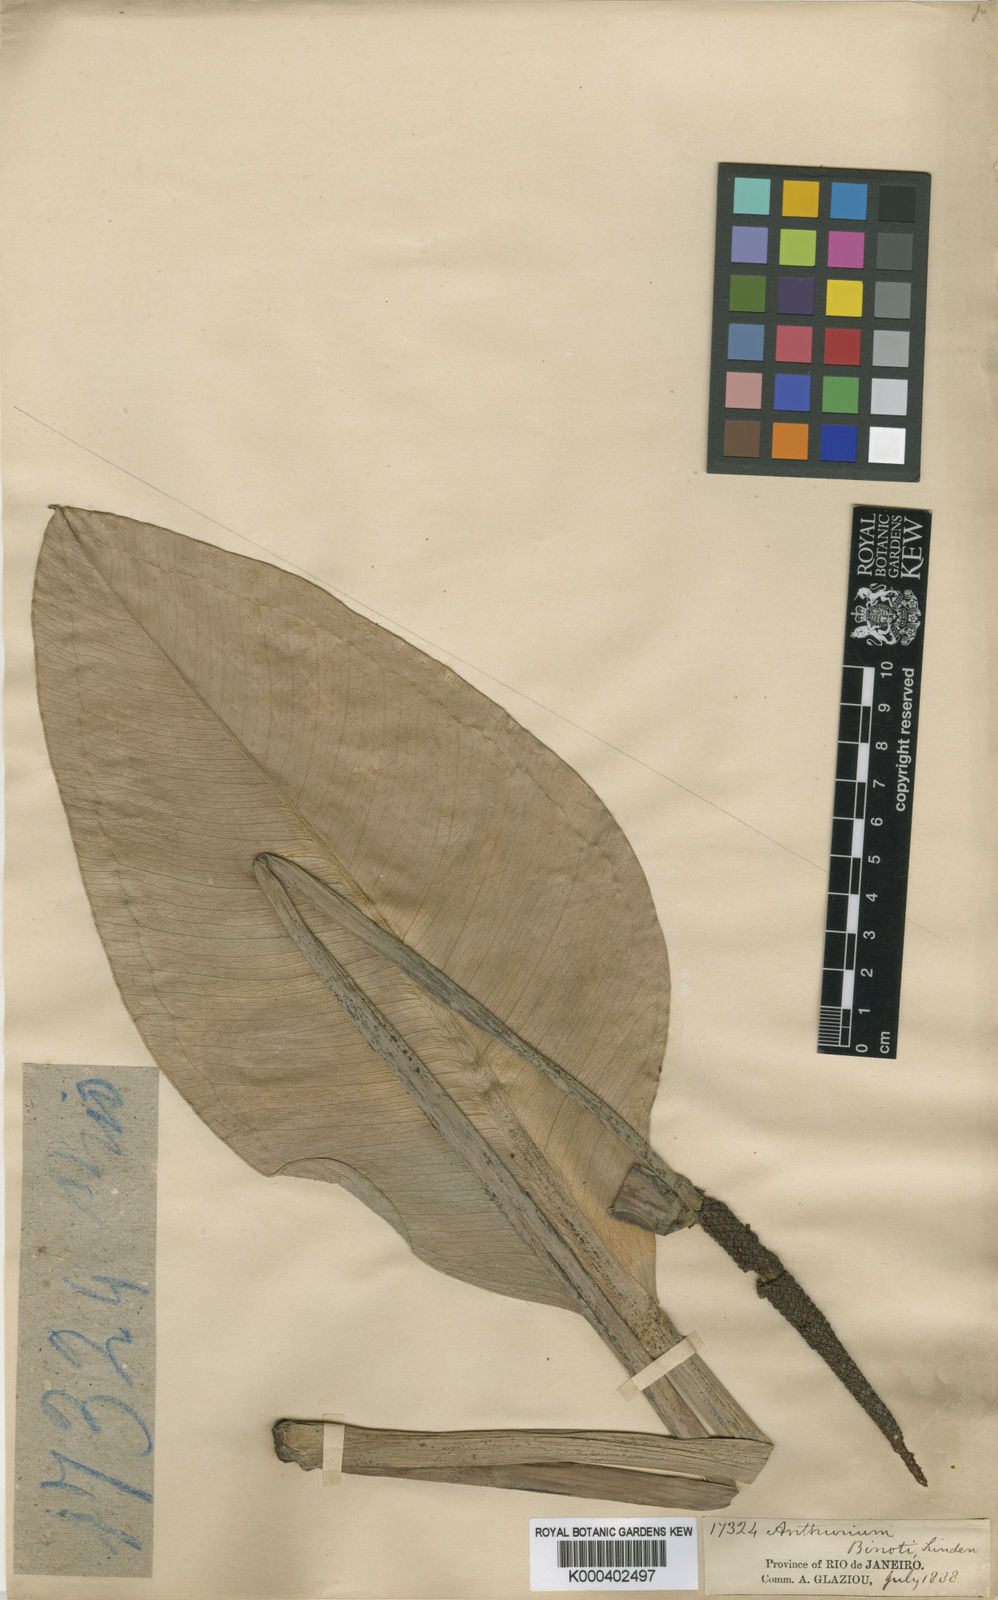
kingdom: Plantae
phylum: Tracheophyta
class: Liliopsida
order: Alismatales
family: Araceae
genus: Anthurium
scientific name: Anthurium binotii
